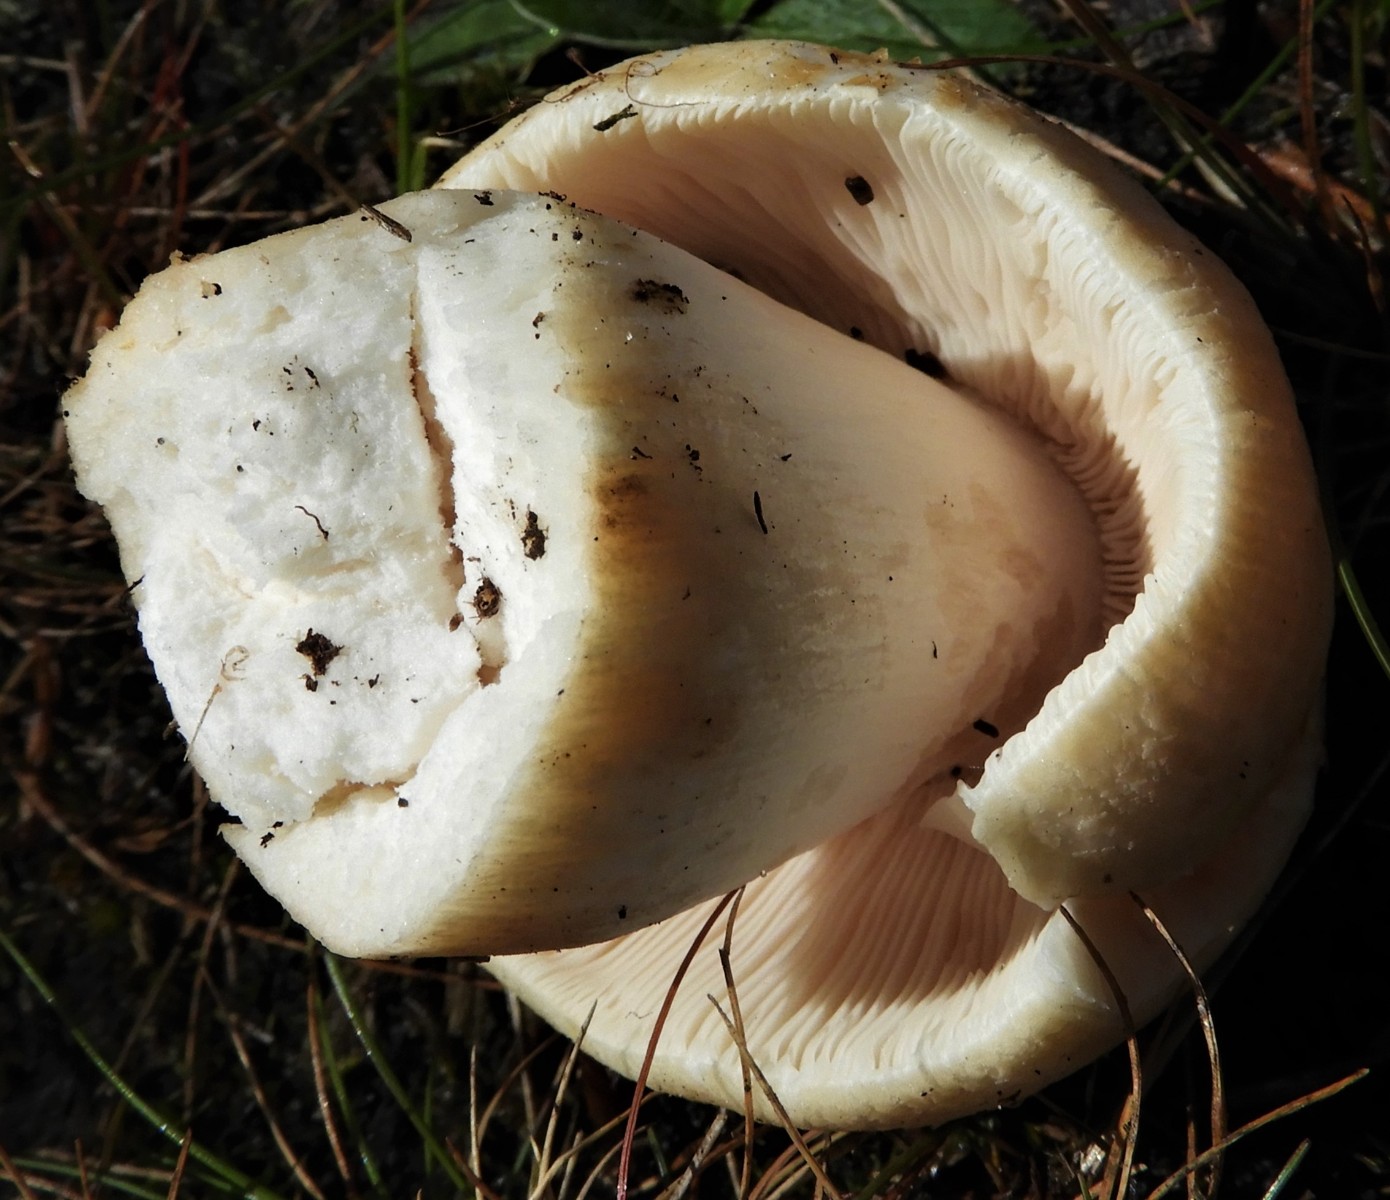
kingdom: Fungi
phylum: Basidiomycota
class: Agaricomycetes
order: Russulales
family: Russulaceae
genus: Russula
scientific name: Russula virescens
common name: spanskgrøn skørhat
